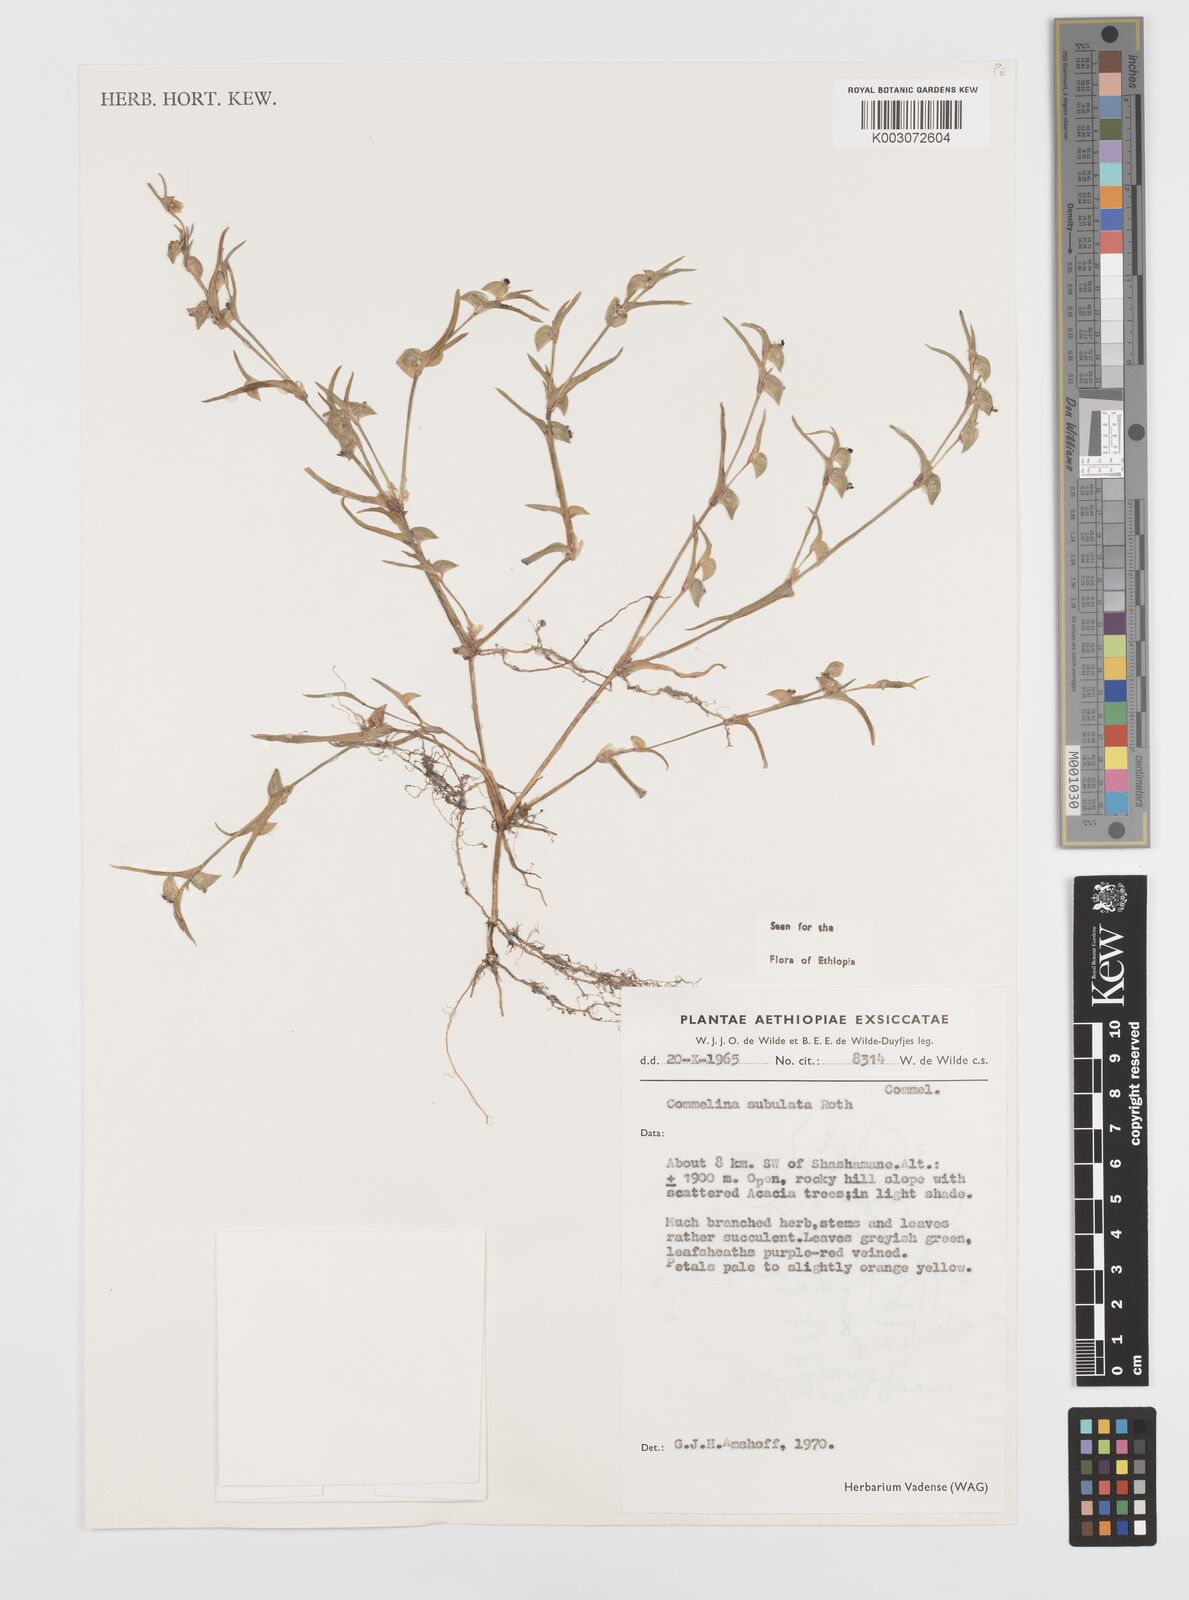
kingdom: Plantae
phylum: Tracheophyta
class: Liliopsida
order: Commelinales
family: Commelinaceae
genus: Commelina
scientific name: Commelina subulata
